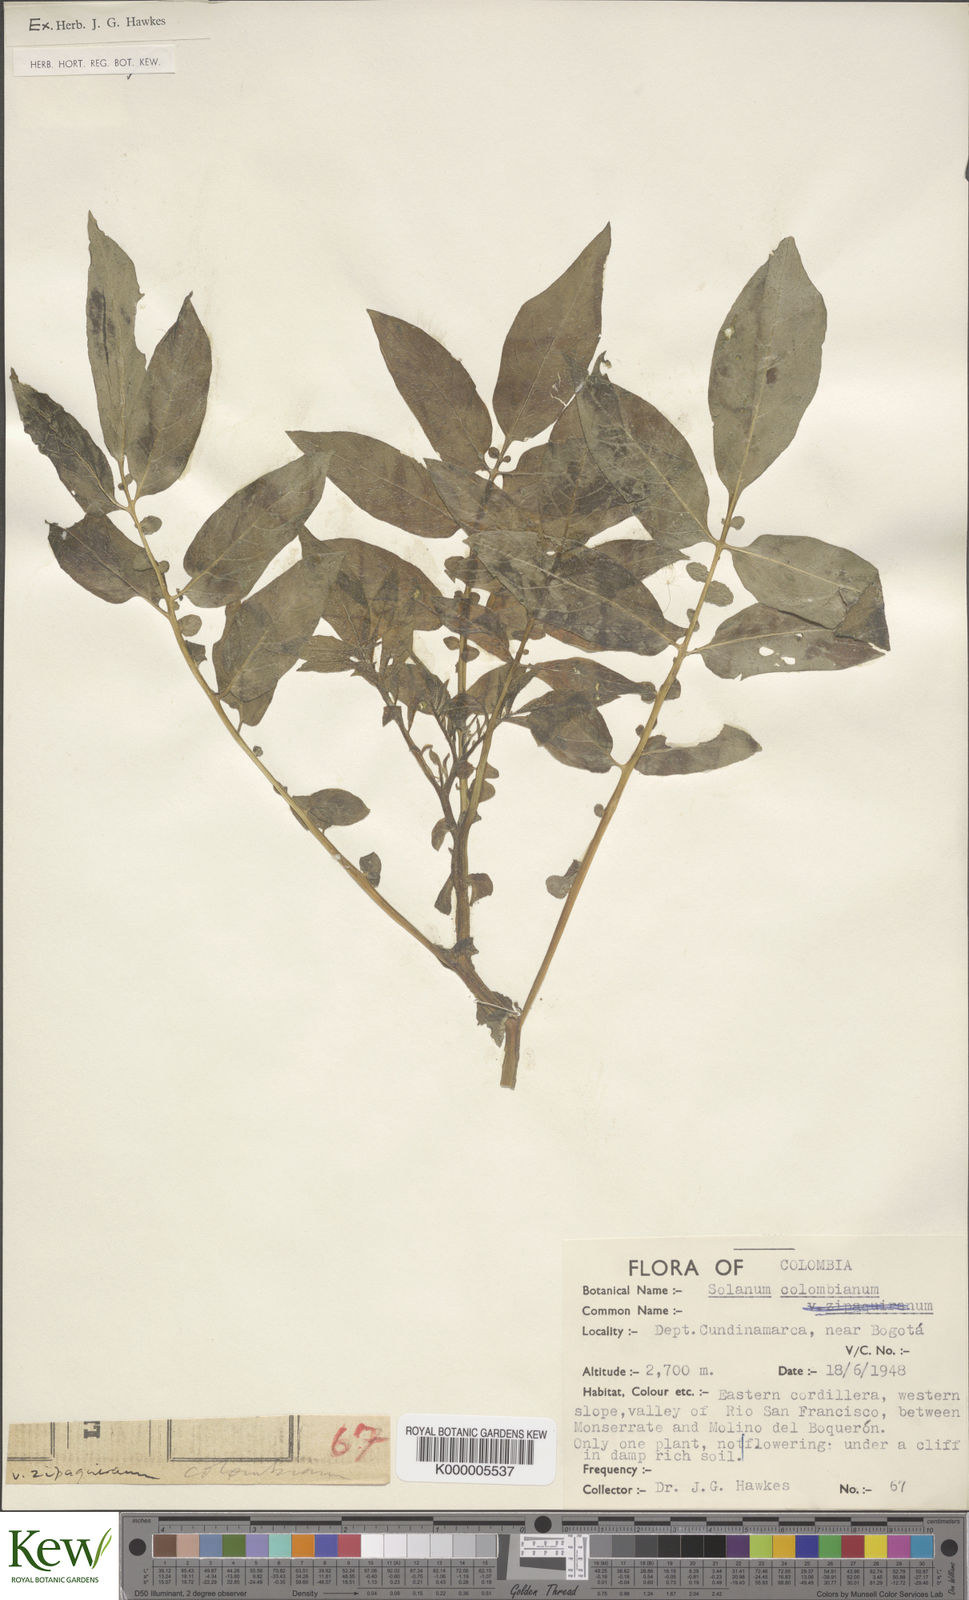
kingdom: Plantae
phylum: Tracheophyta
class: Magnoliopsida
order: Solanales
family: Solanaceae
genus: Solanum
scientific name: Solanum colombianum
